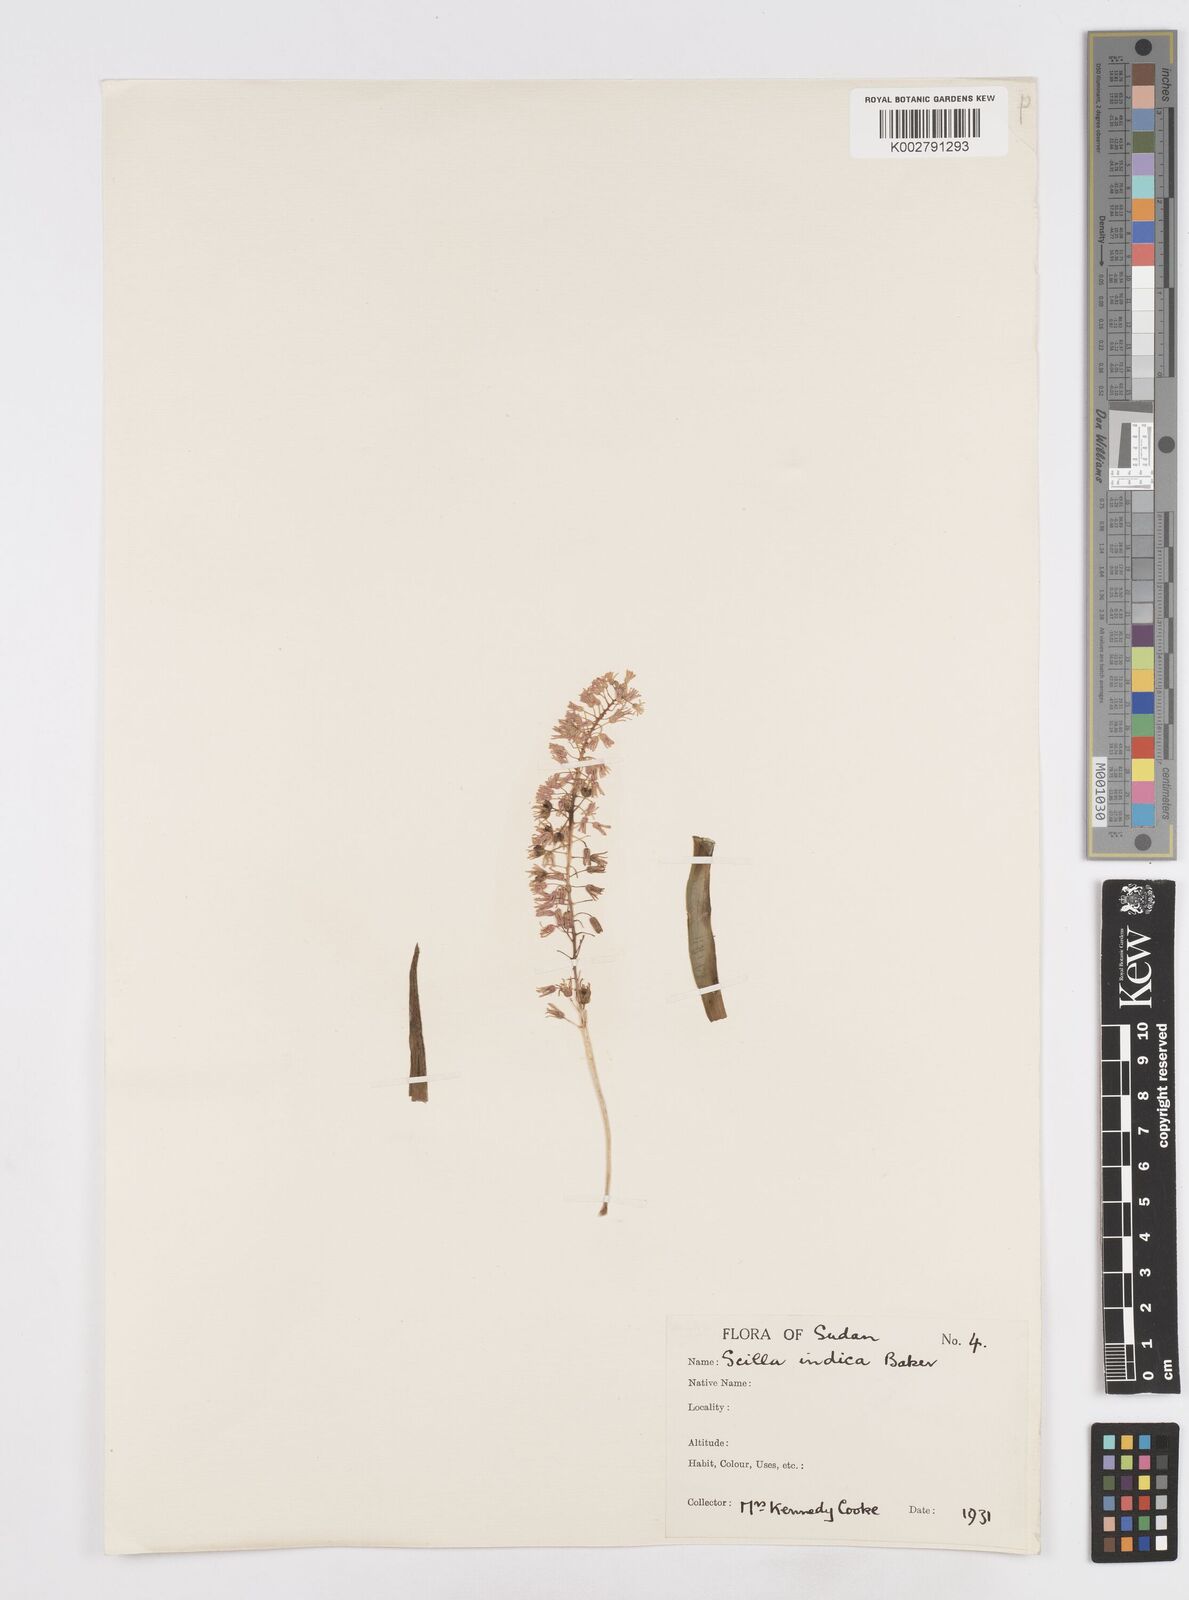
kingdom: Plantae
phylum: Tracheophyta
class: Liliopsida
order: Asparagales
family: Asparagaceae
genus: Ledebouria
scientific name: Ledebouria revoluta
